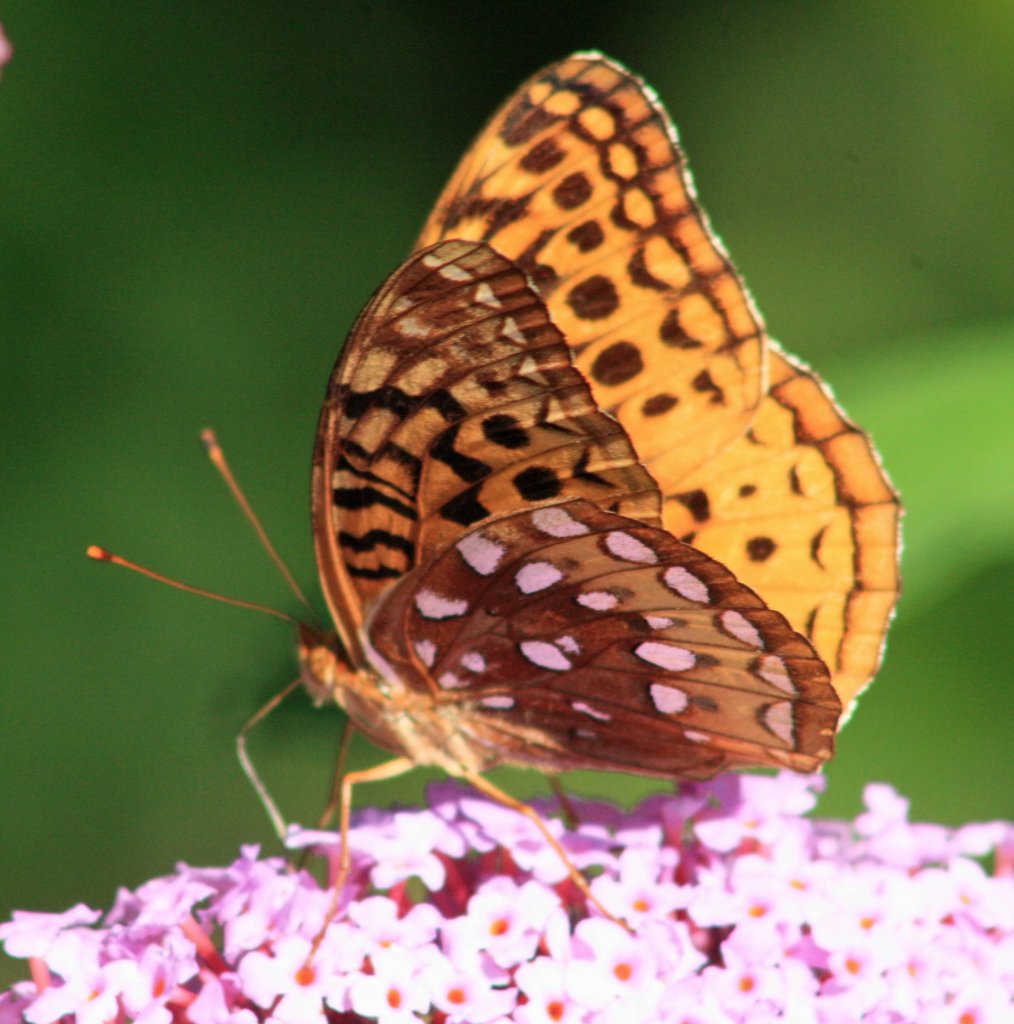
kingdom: Animalia
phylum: Arthropoda
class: Insecta
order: Lepidoptera
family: Nymphalidae
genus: Speyeria
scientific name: Speyeria cybele
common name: Great Spangled Fritillary
